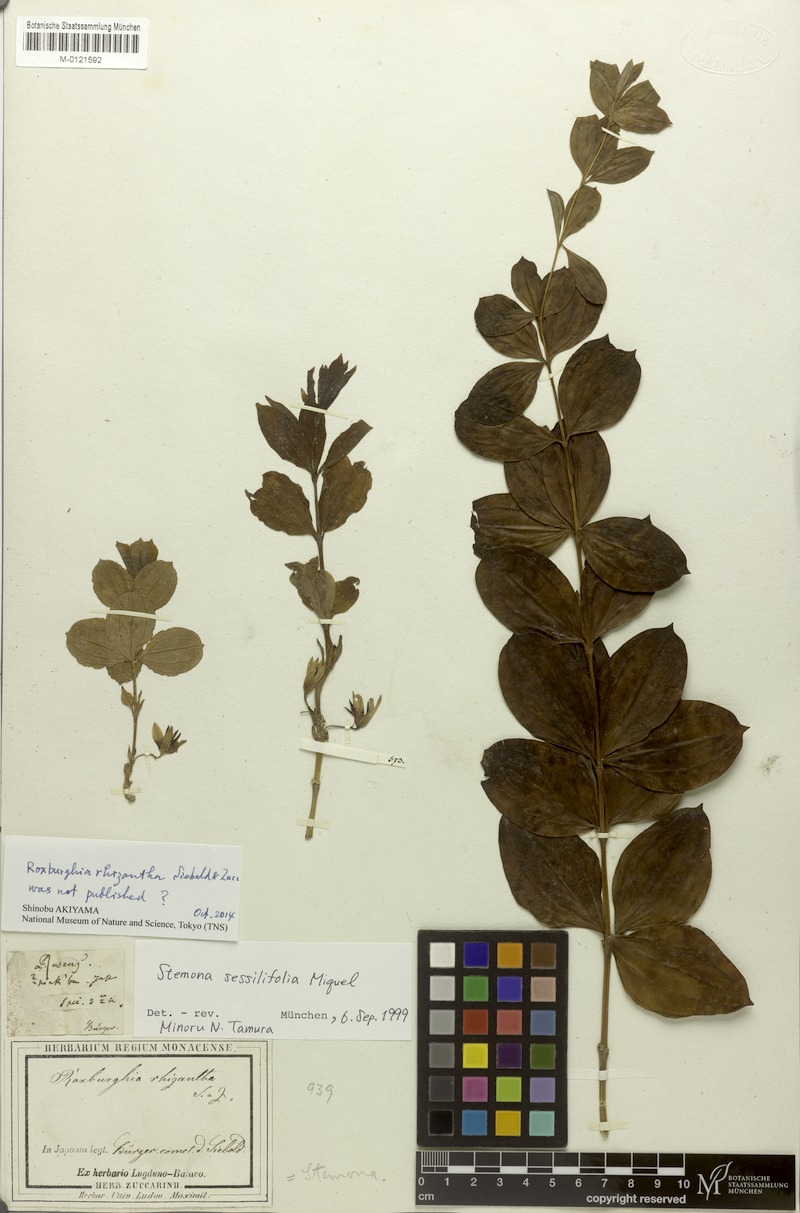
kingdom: Plantae
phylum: Tracheophyta
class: Liliopsida
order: Pandanales
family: Stemonaceae
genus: Stemona
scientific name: Stemona sessilifolia
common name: Stemona
